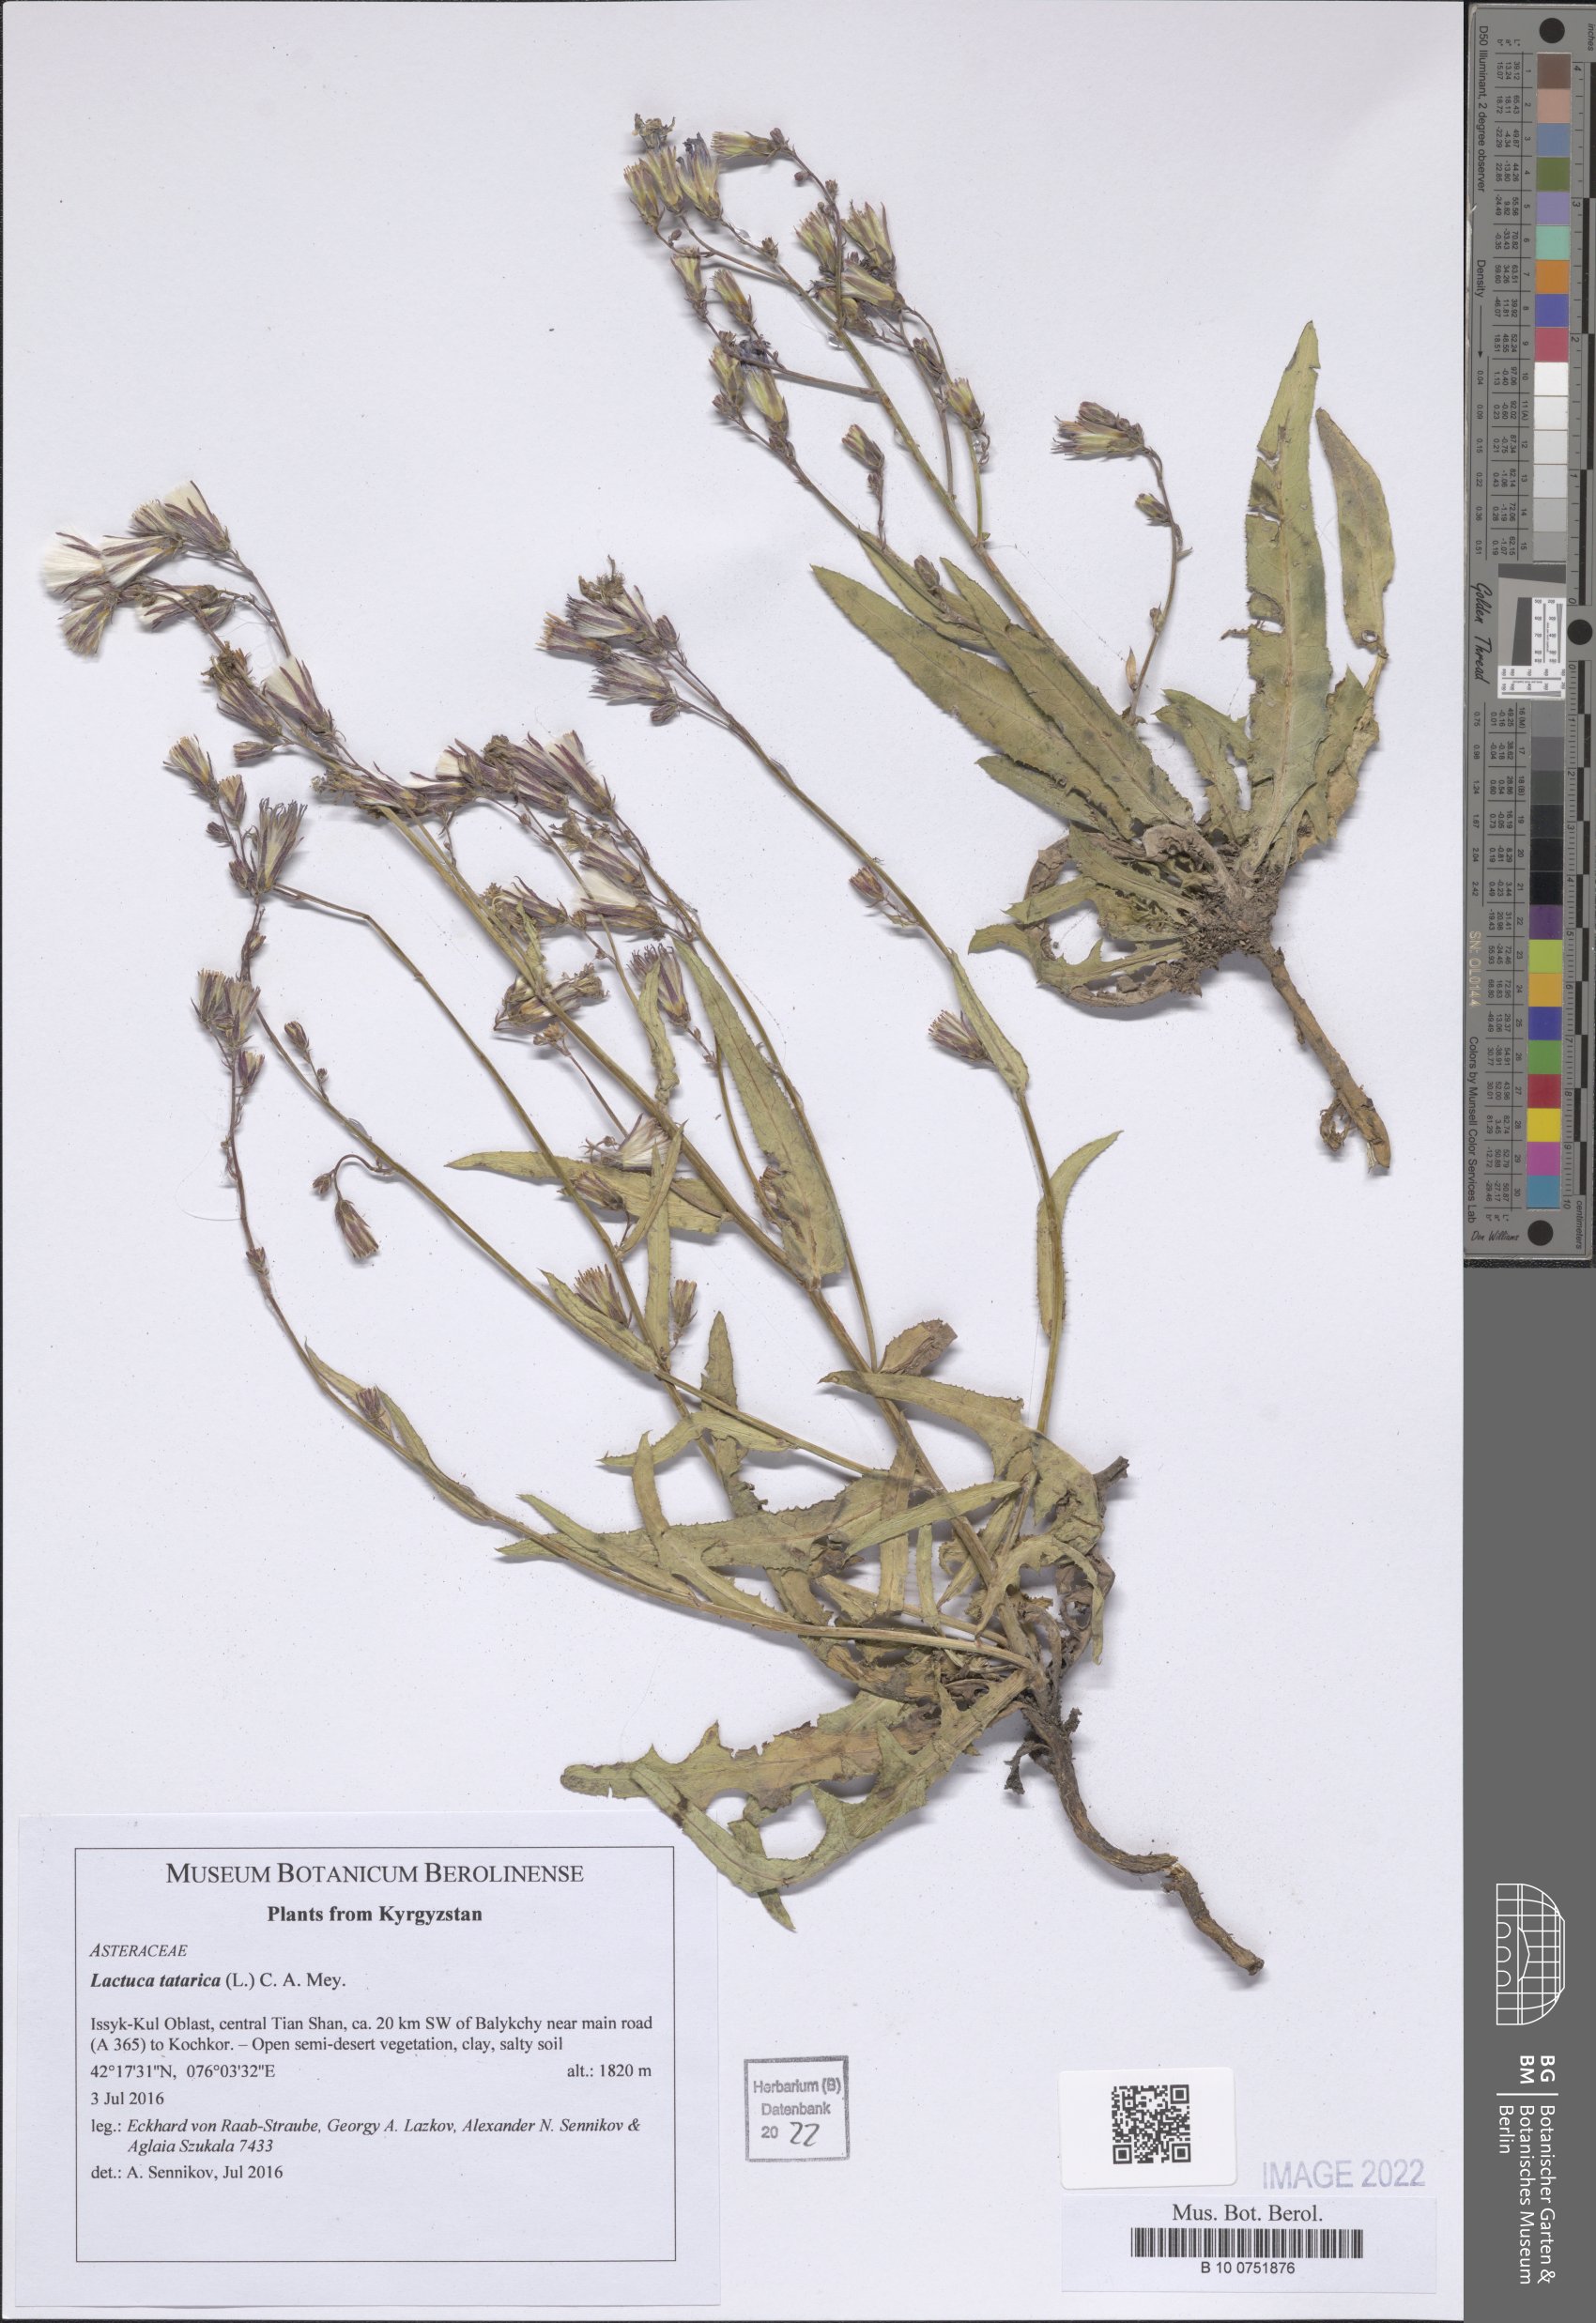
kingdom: Plantae
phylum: Tracheophyta
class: Magnoliopsida
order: Asterales
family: Asteraceae
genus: Lactuca
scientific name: Lactuca tatarica
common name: Blue lettuce
